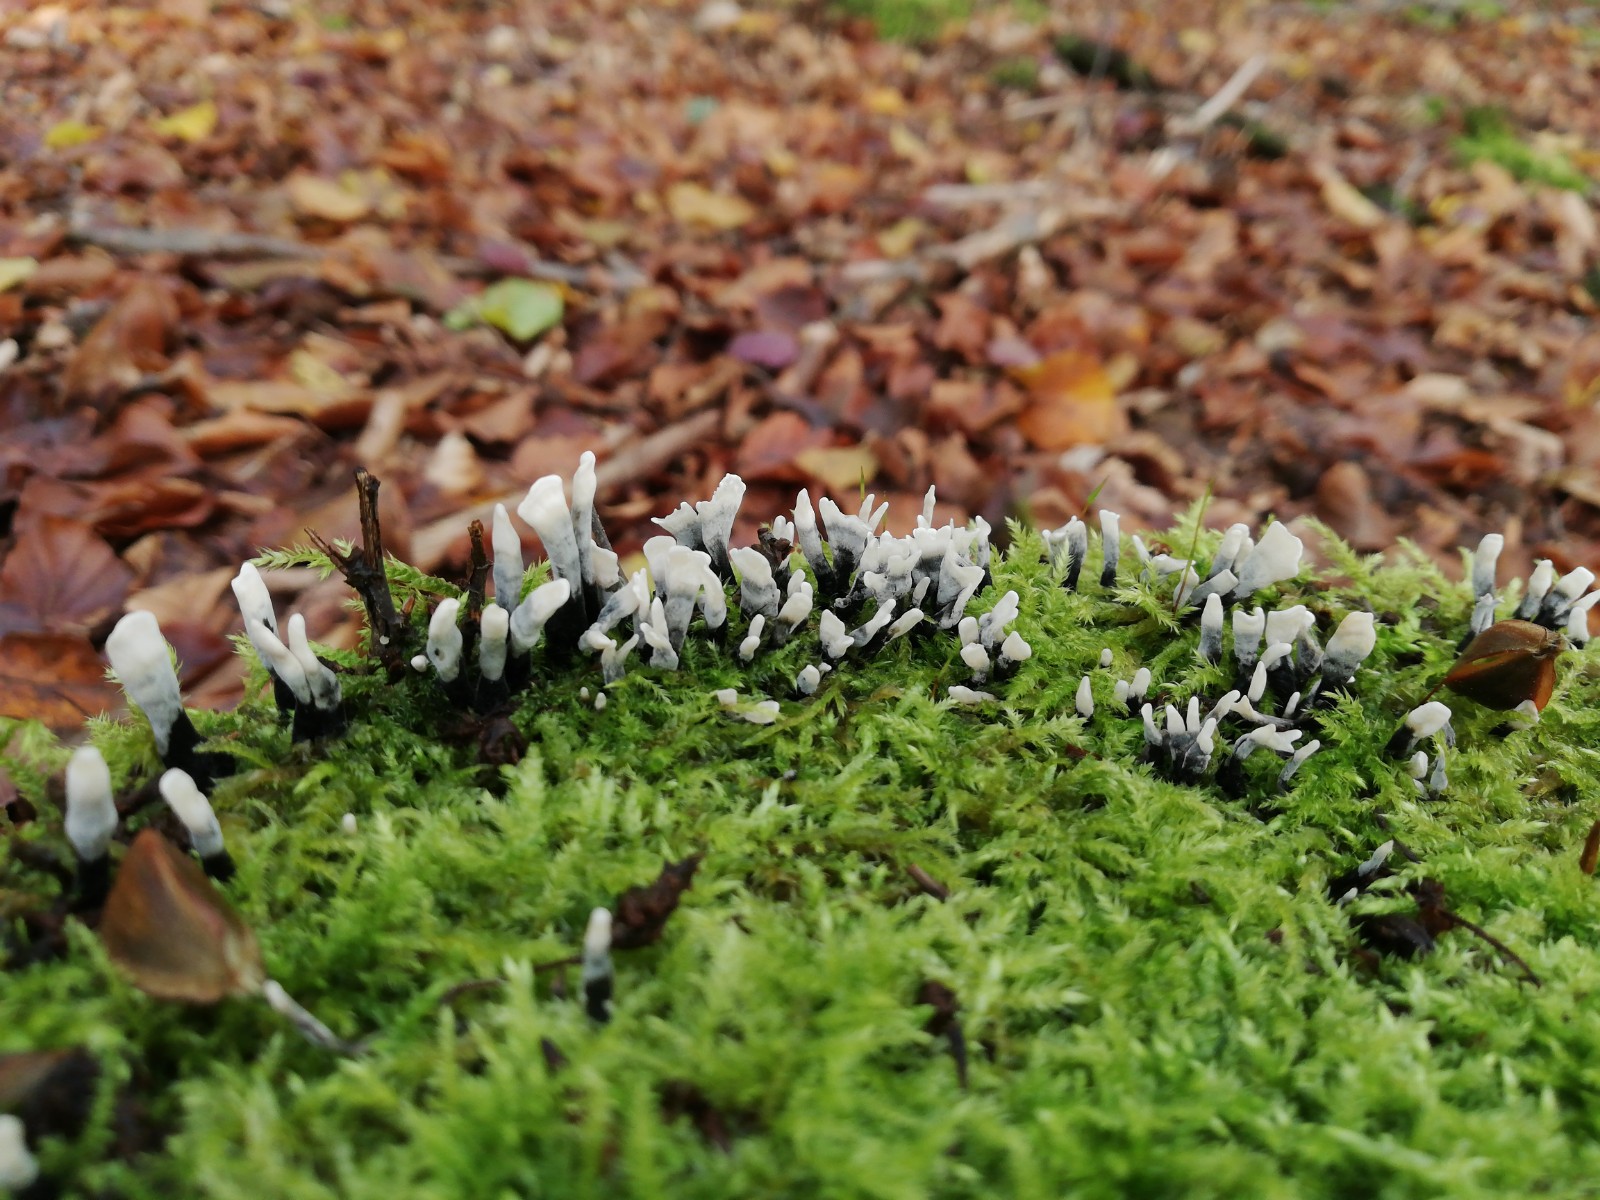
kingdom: Fungi
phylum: Ascomycota
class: Sordariomycetes
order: Xylariales
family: Xylariaceae
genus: Xylaria
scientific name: Xylaria hypoxylon
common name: grenet stødsvamp
